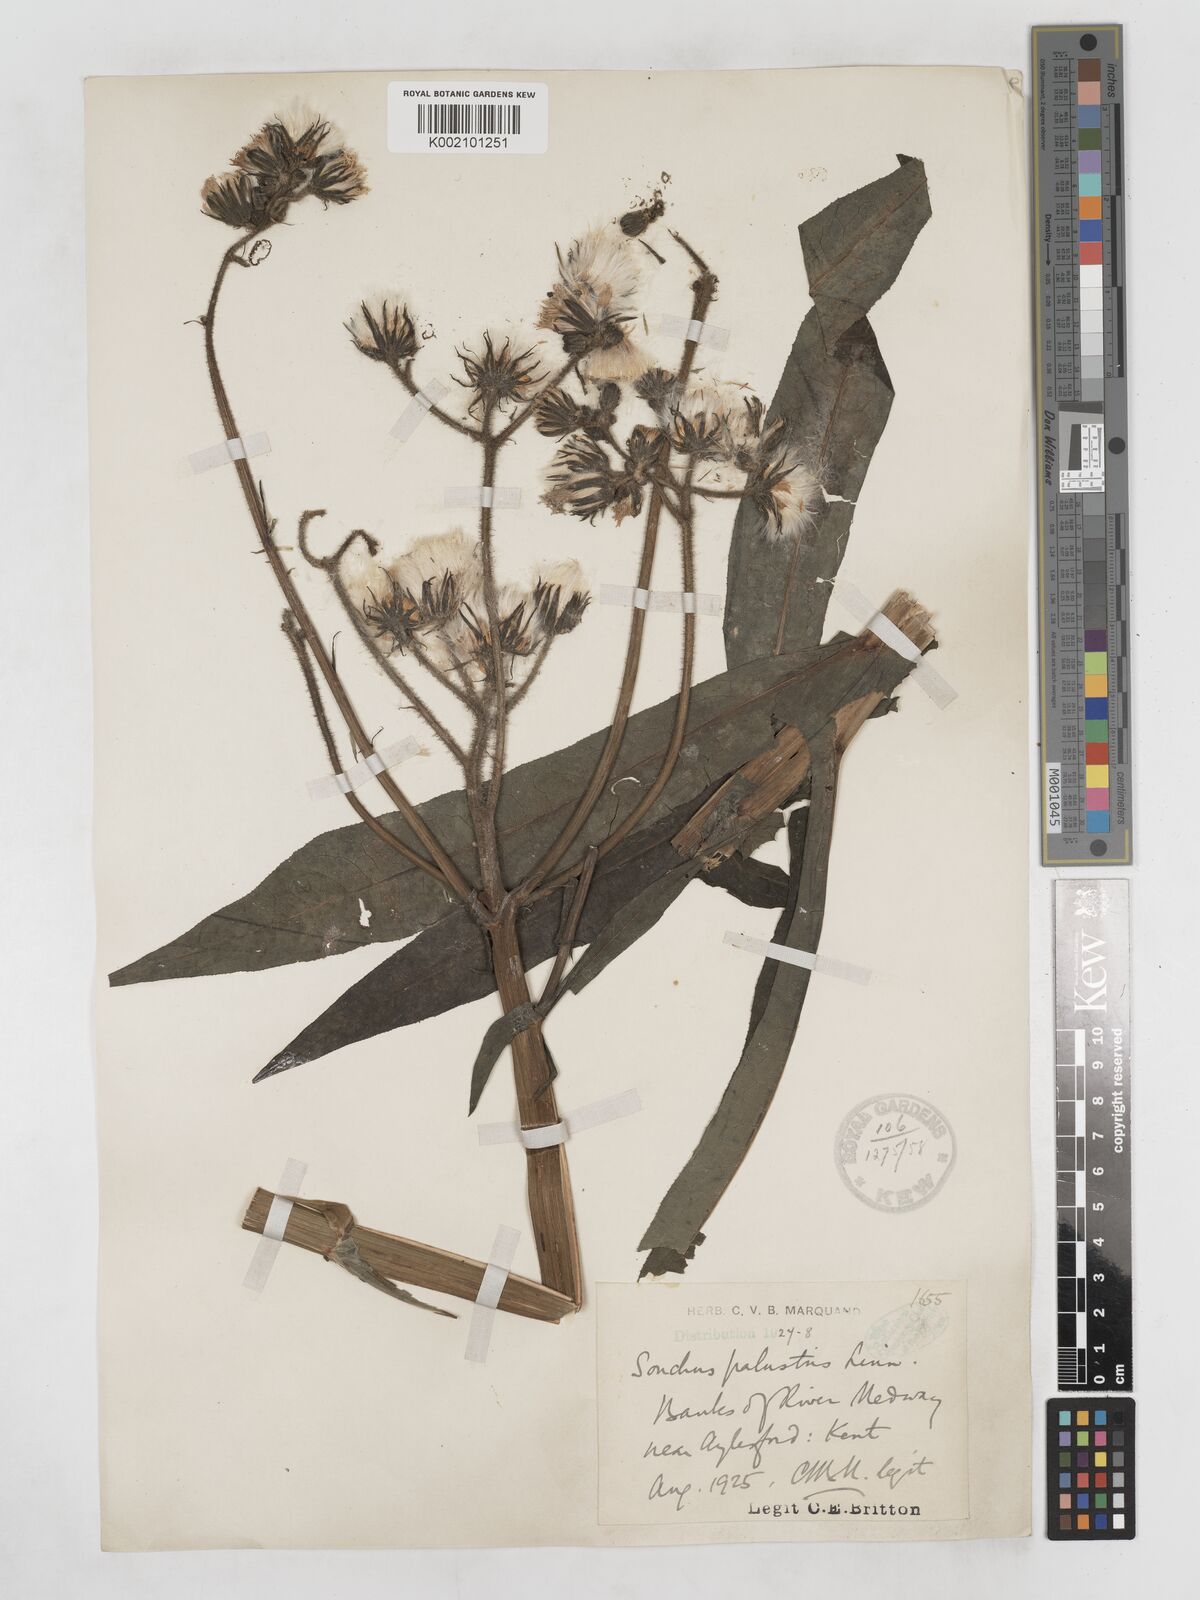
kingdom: Plantae
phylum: Tracheophyta
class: Magnoliopsida
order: Asterales
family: Asteraceae
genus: Sonchus
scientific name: Sonchus palustris
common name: Marsh sow-thistle
